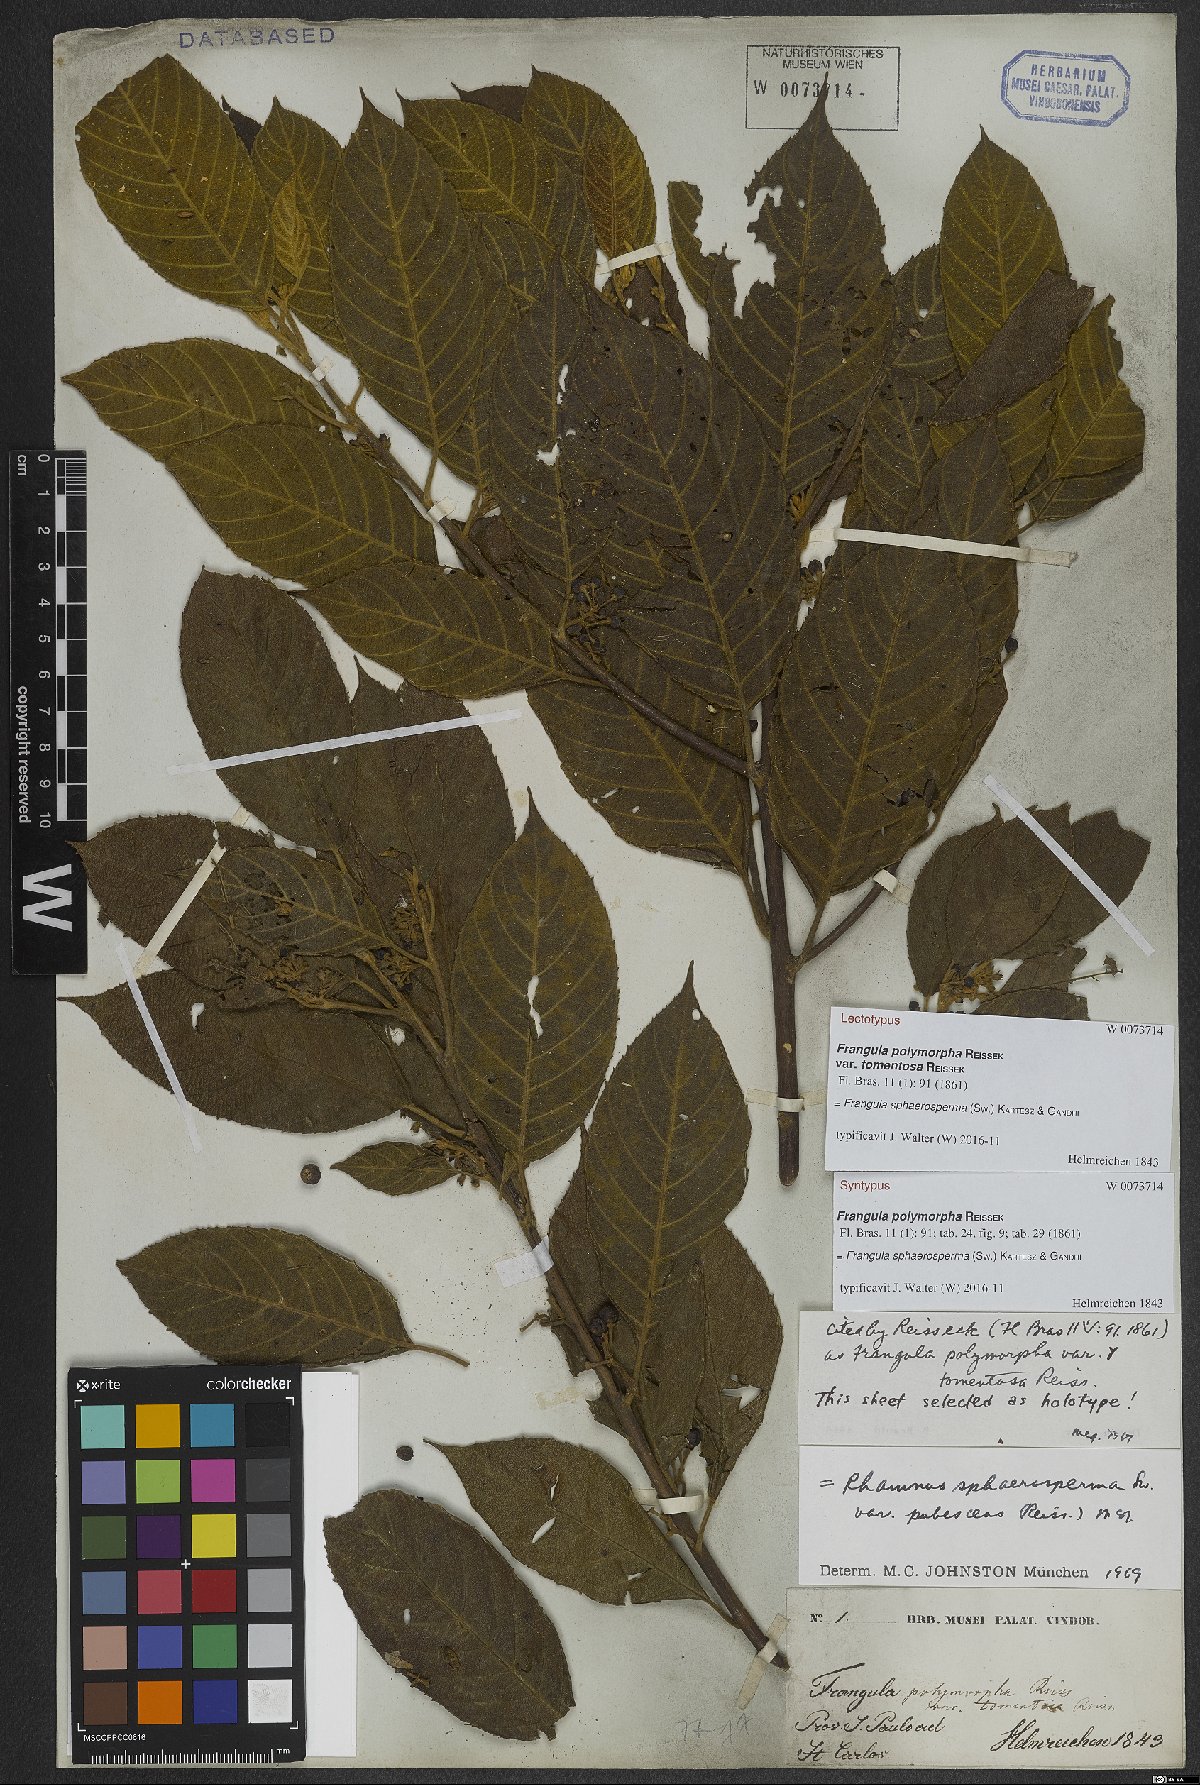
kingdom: Plantae
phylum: Tracheophyta
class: Magnoliopsida
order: Rosales
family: Rhamnaceae
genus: Frangula
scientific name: Frangula sphaerosperma
